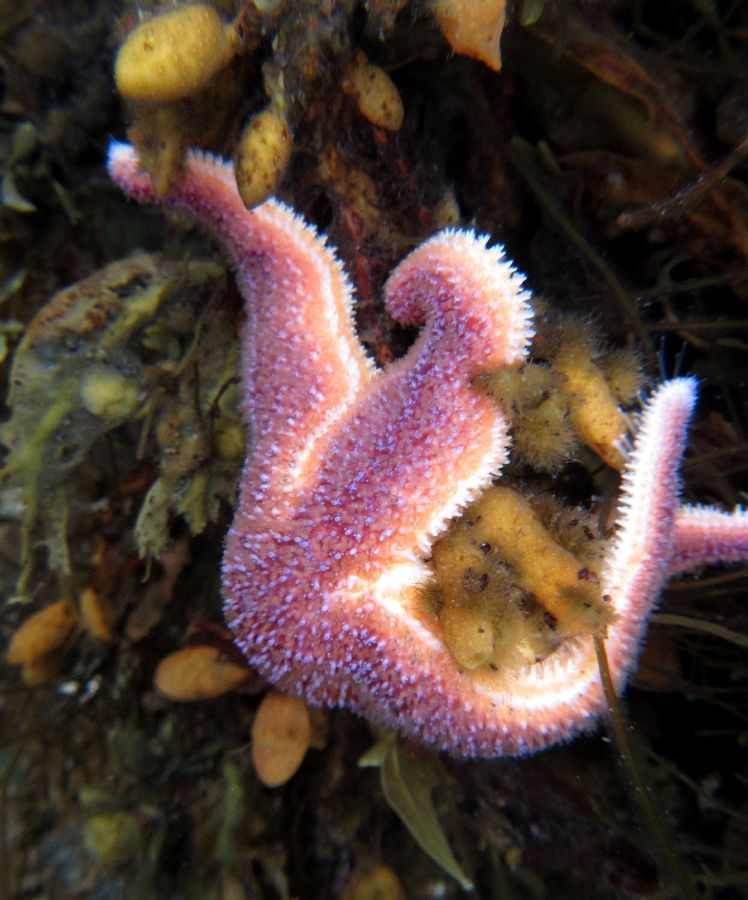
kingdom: Animalia
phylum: Echinodermata
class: Asteroidea
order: Forcipulatida
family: Asteriidae
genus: Asterias
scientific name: Asterias rubens
